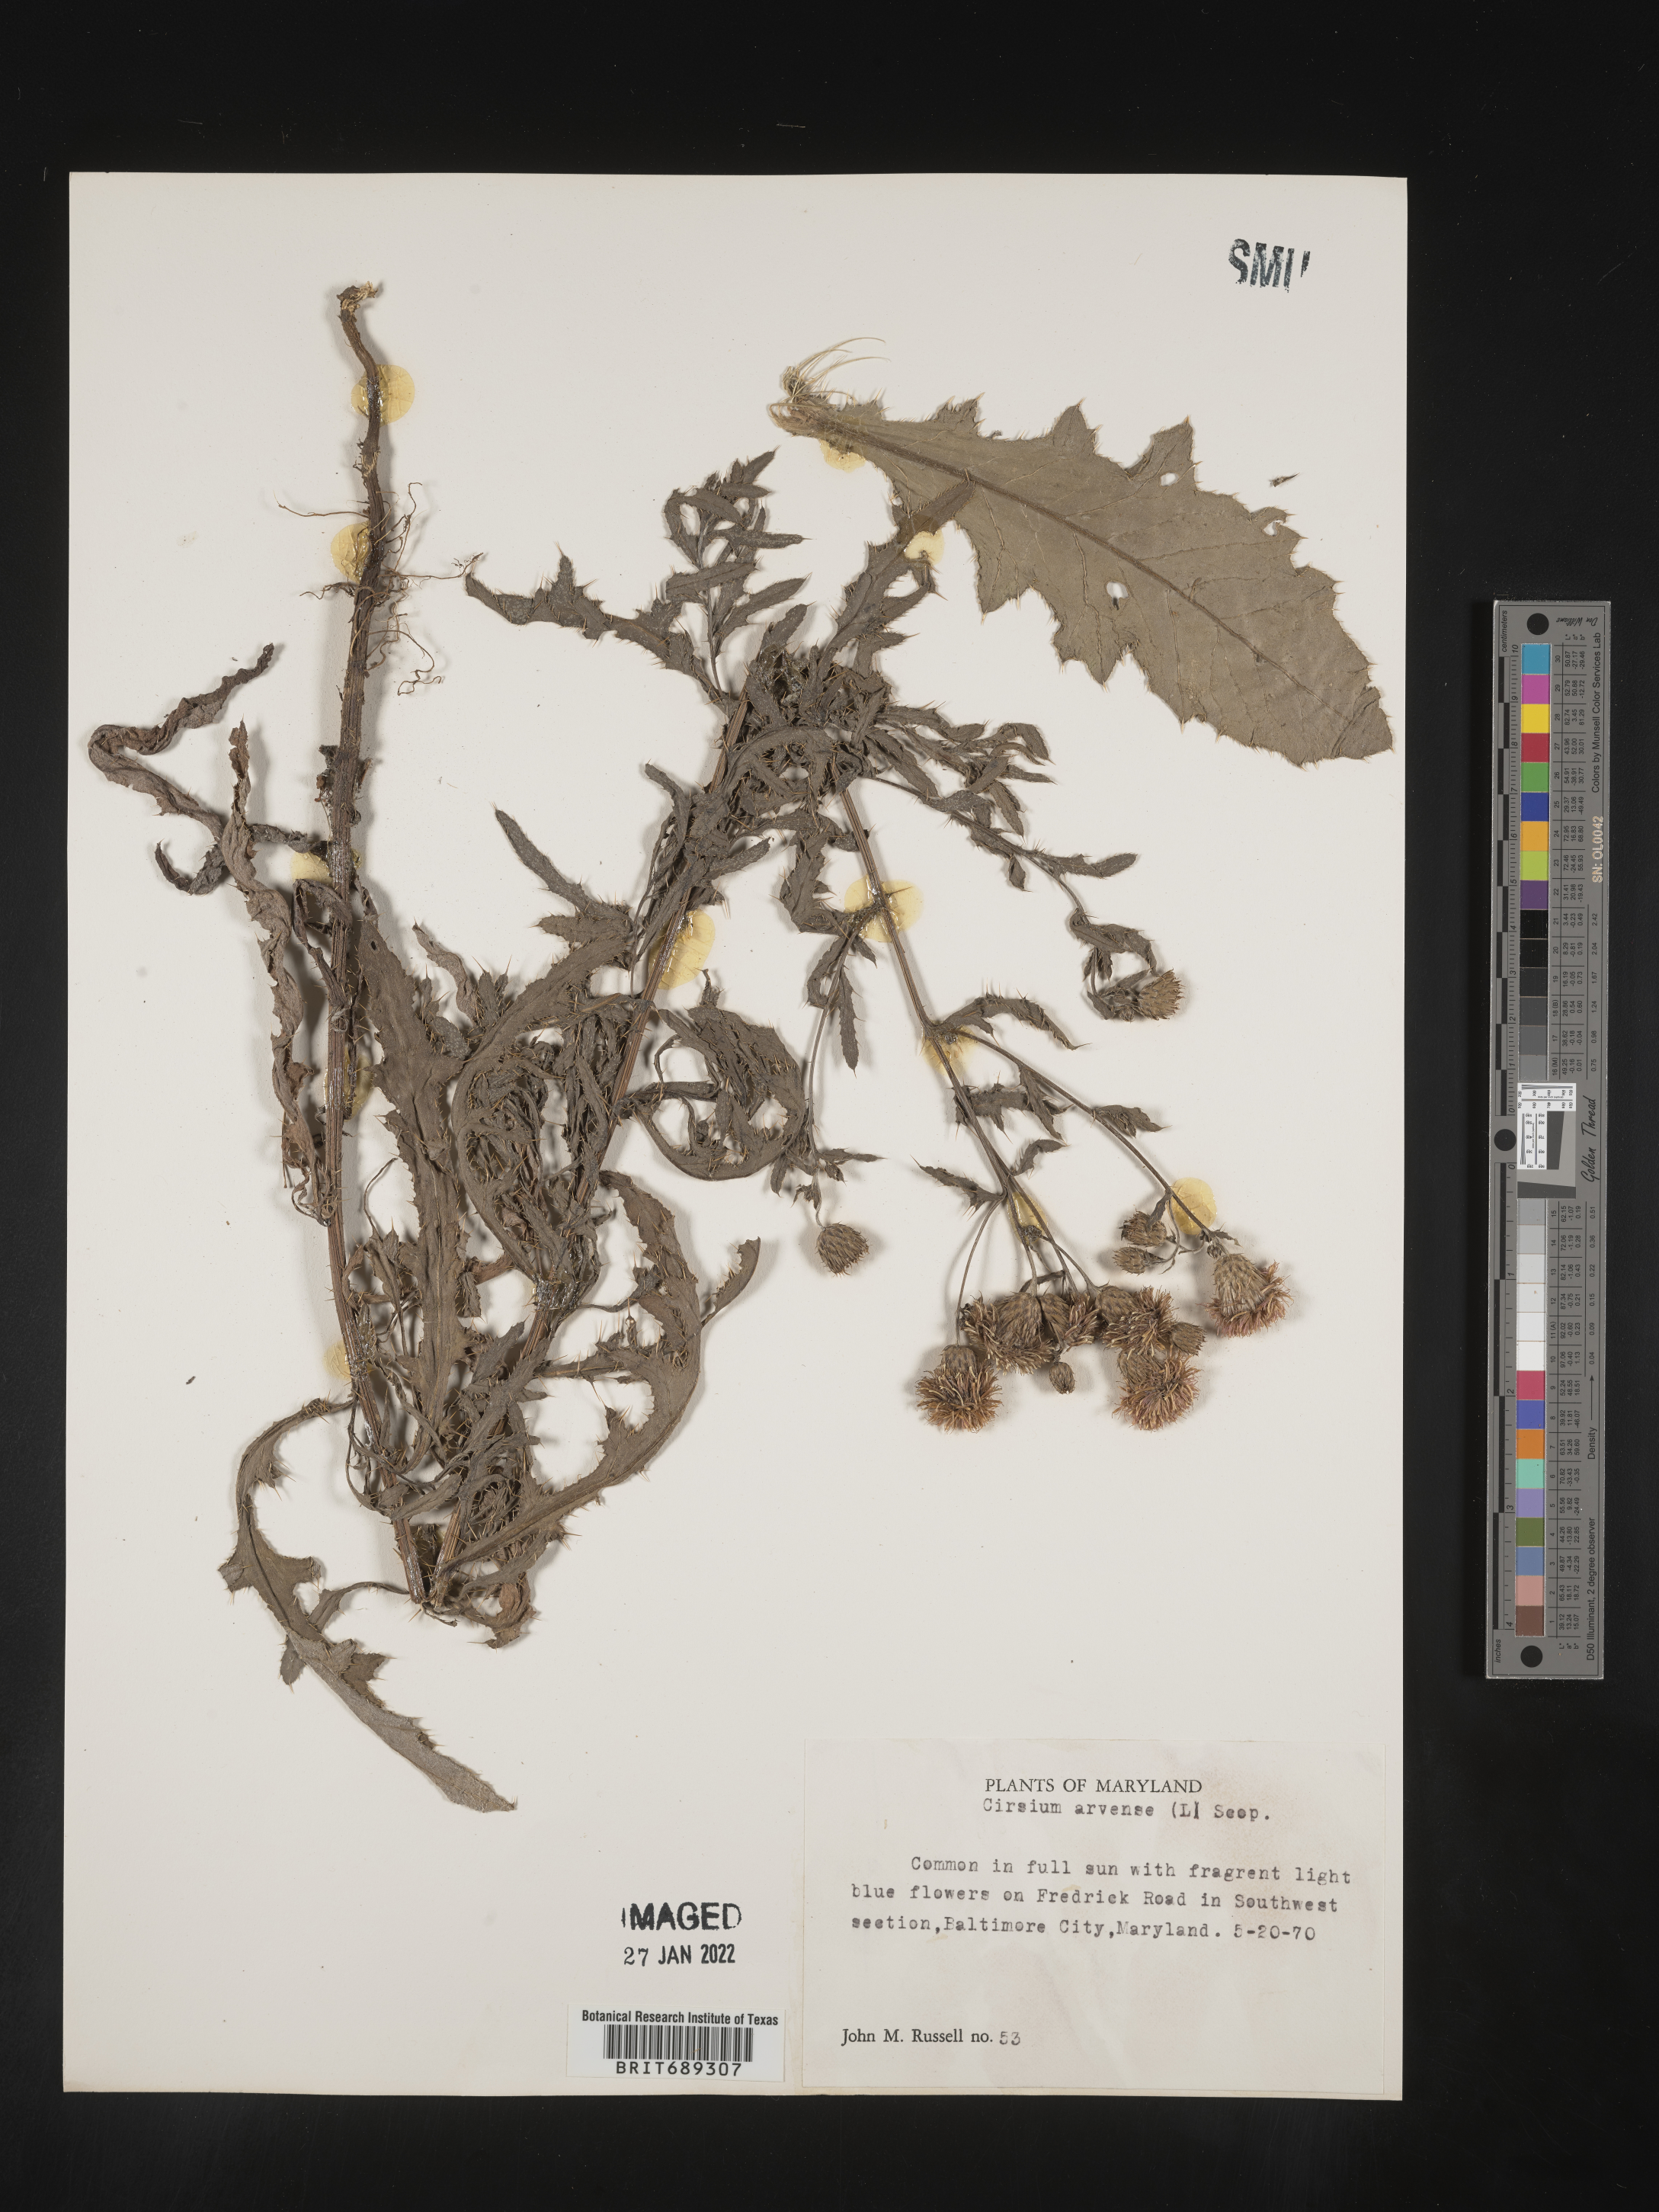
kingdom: Plantae
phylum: Tracheophyta
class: Magnoliopsida
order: Asterales
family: Asteraceae
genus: Cirsium
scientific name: Cirsium
